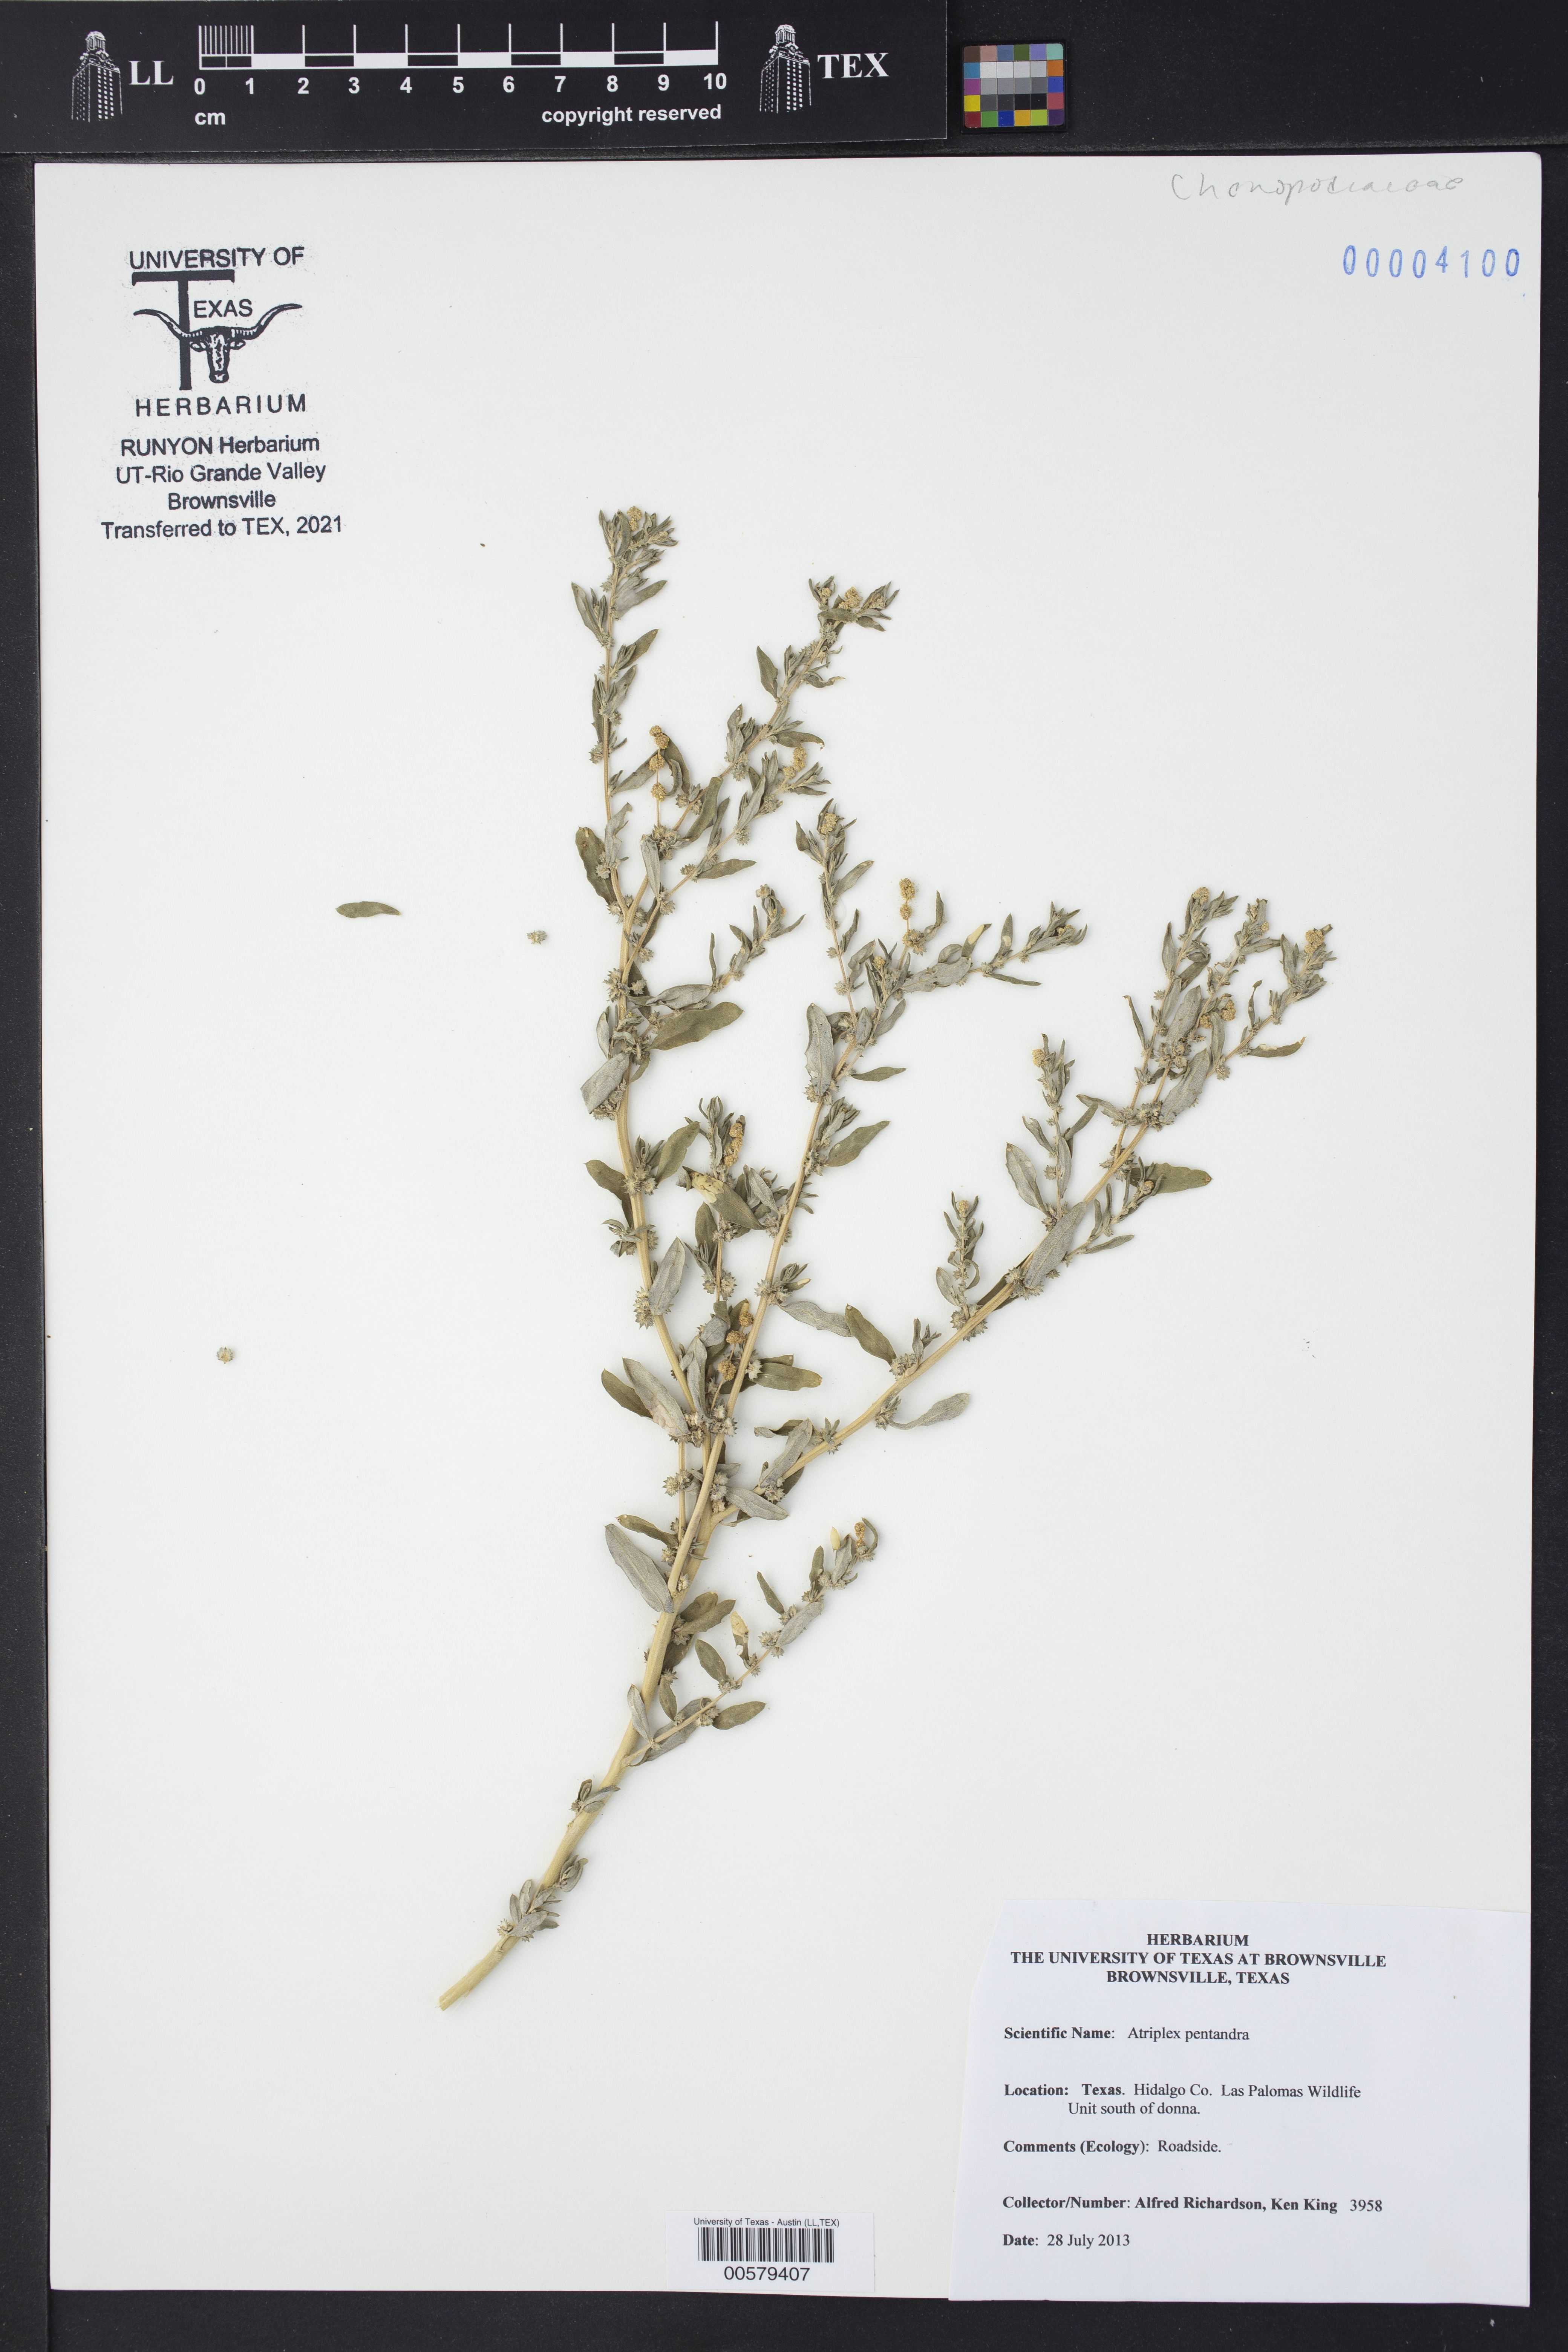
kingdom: Plantae
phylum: Tracheophyta
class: Magnoliopsida
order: Caryophyllales
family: Amaranthaceae
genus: Atriplex
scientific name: Atriplex cristata
